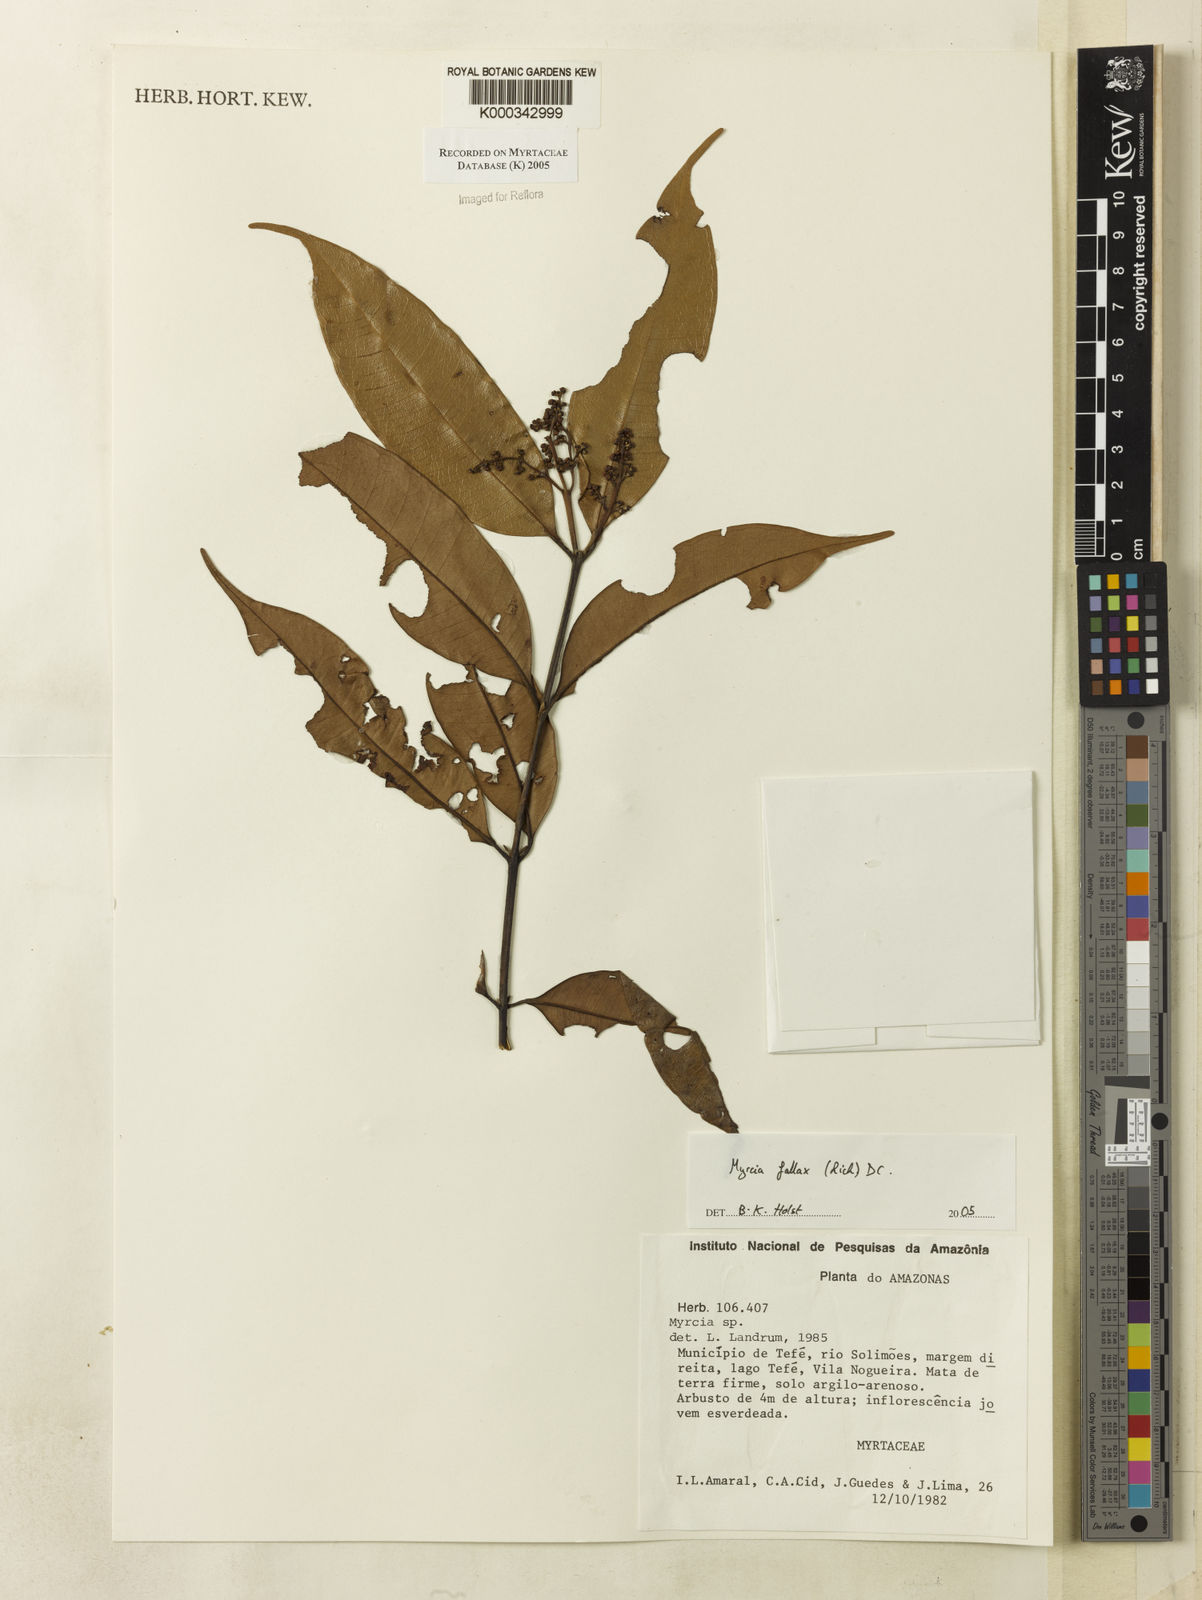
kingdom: Plantae
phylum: Tracheophyta
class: Magnoliopsida
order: Myrtales
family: Myrtaceae
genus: Myrcia
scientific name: Myrcia splendens
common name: Surinam cherry
